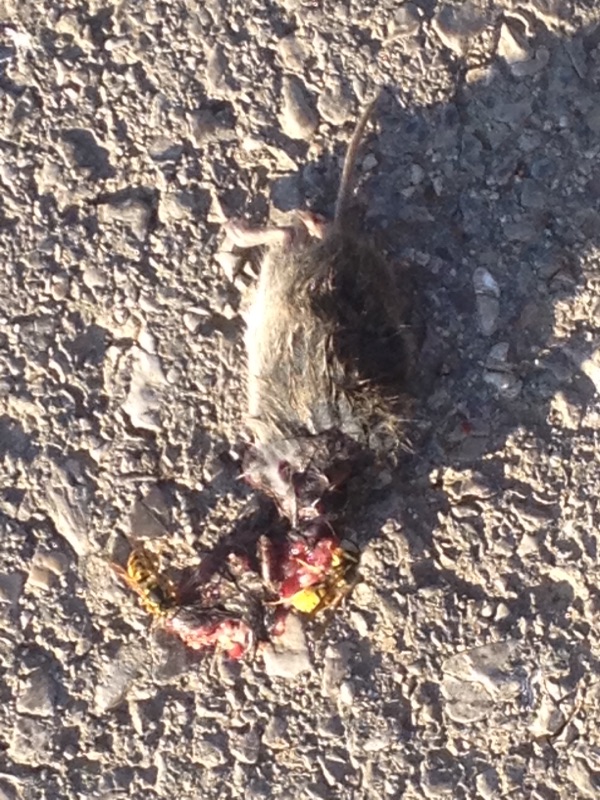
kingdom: Animalia
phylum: Chordata
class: Mammalia
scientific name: Mammalia
